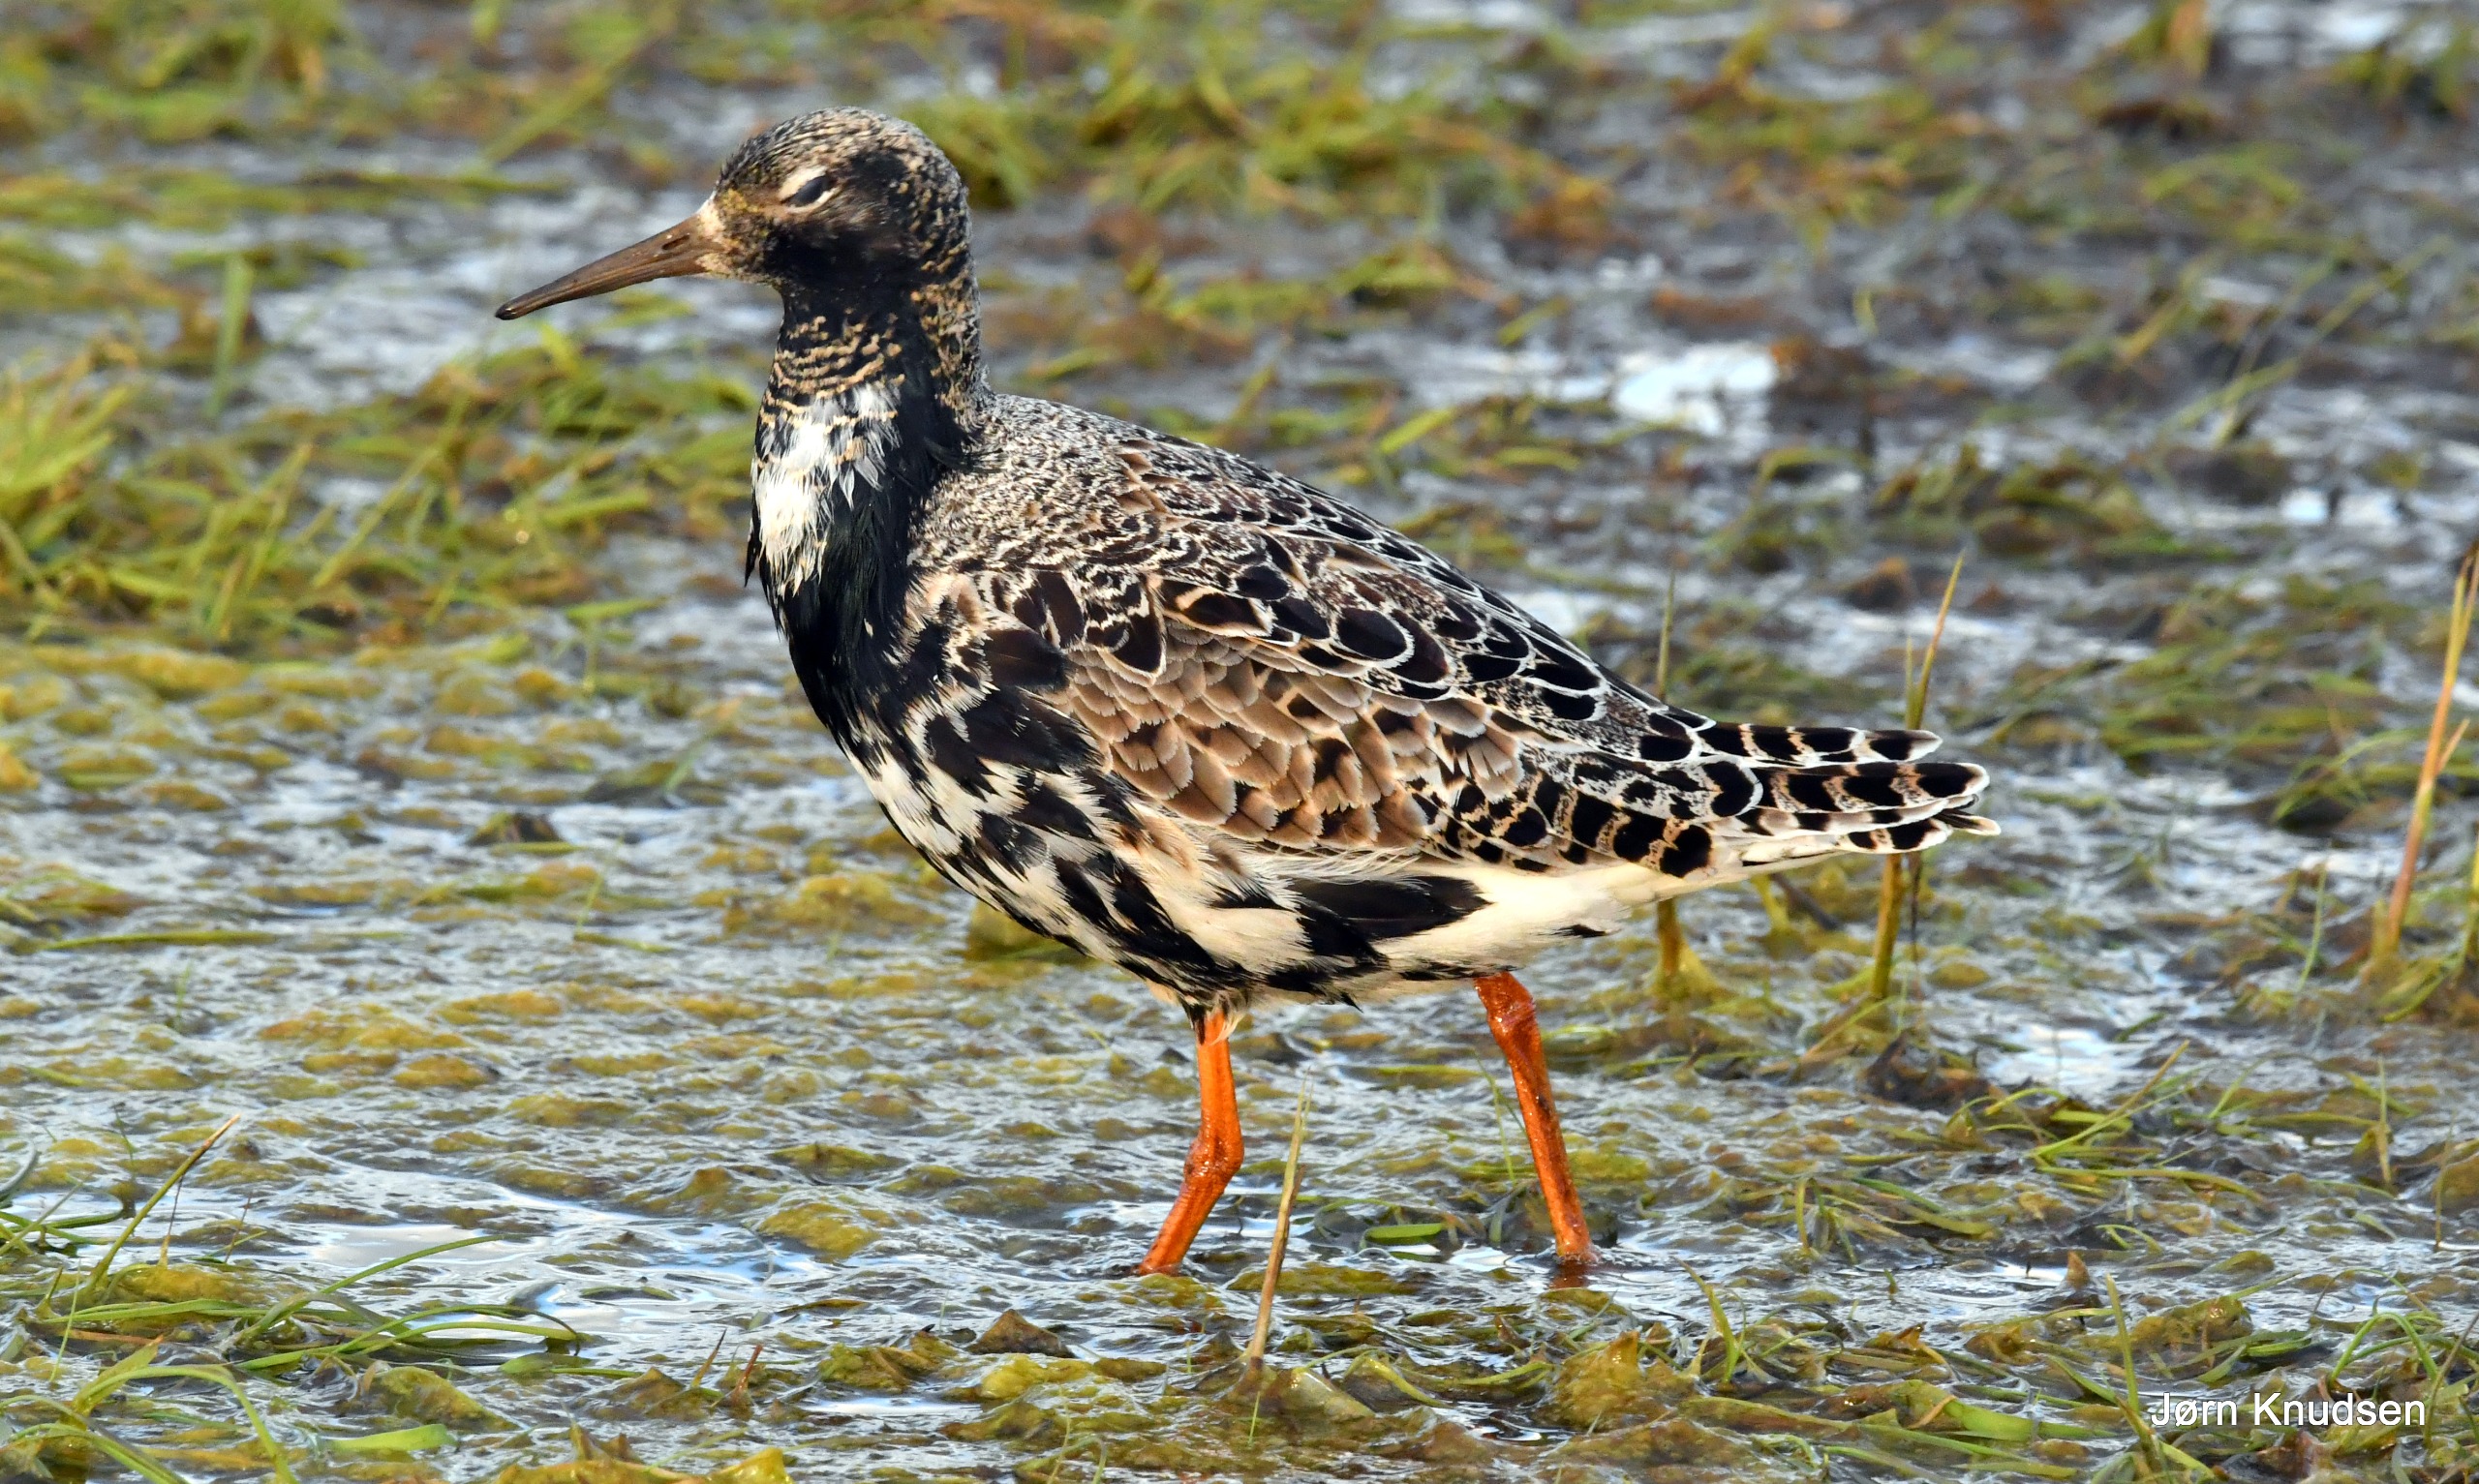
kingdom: Animalia
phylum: Chordata
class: Aves
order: Charadriiformes
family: Scolopacidae
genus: Calidris
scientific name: Calidris pugnax
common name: Brushane
